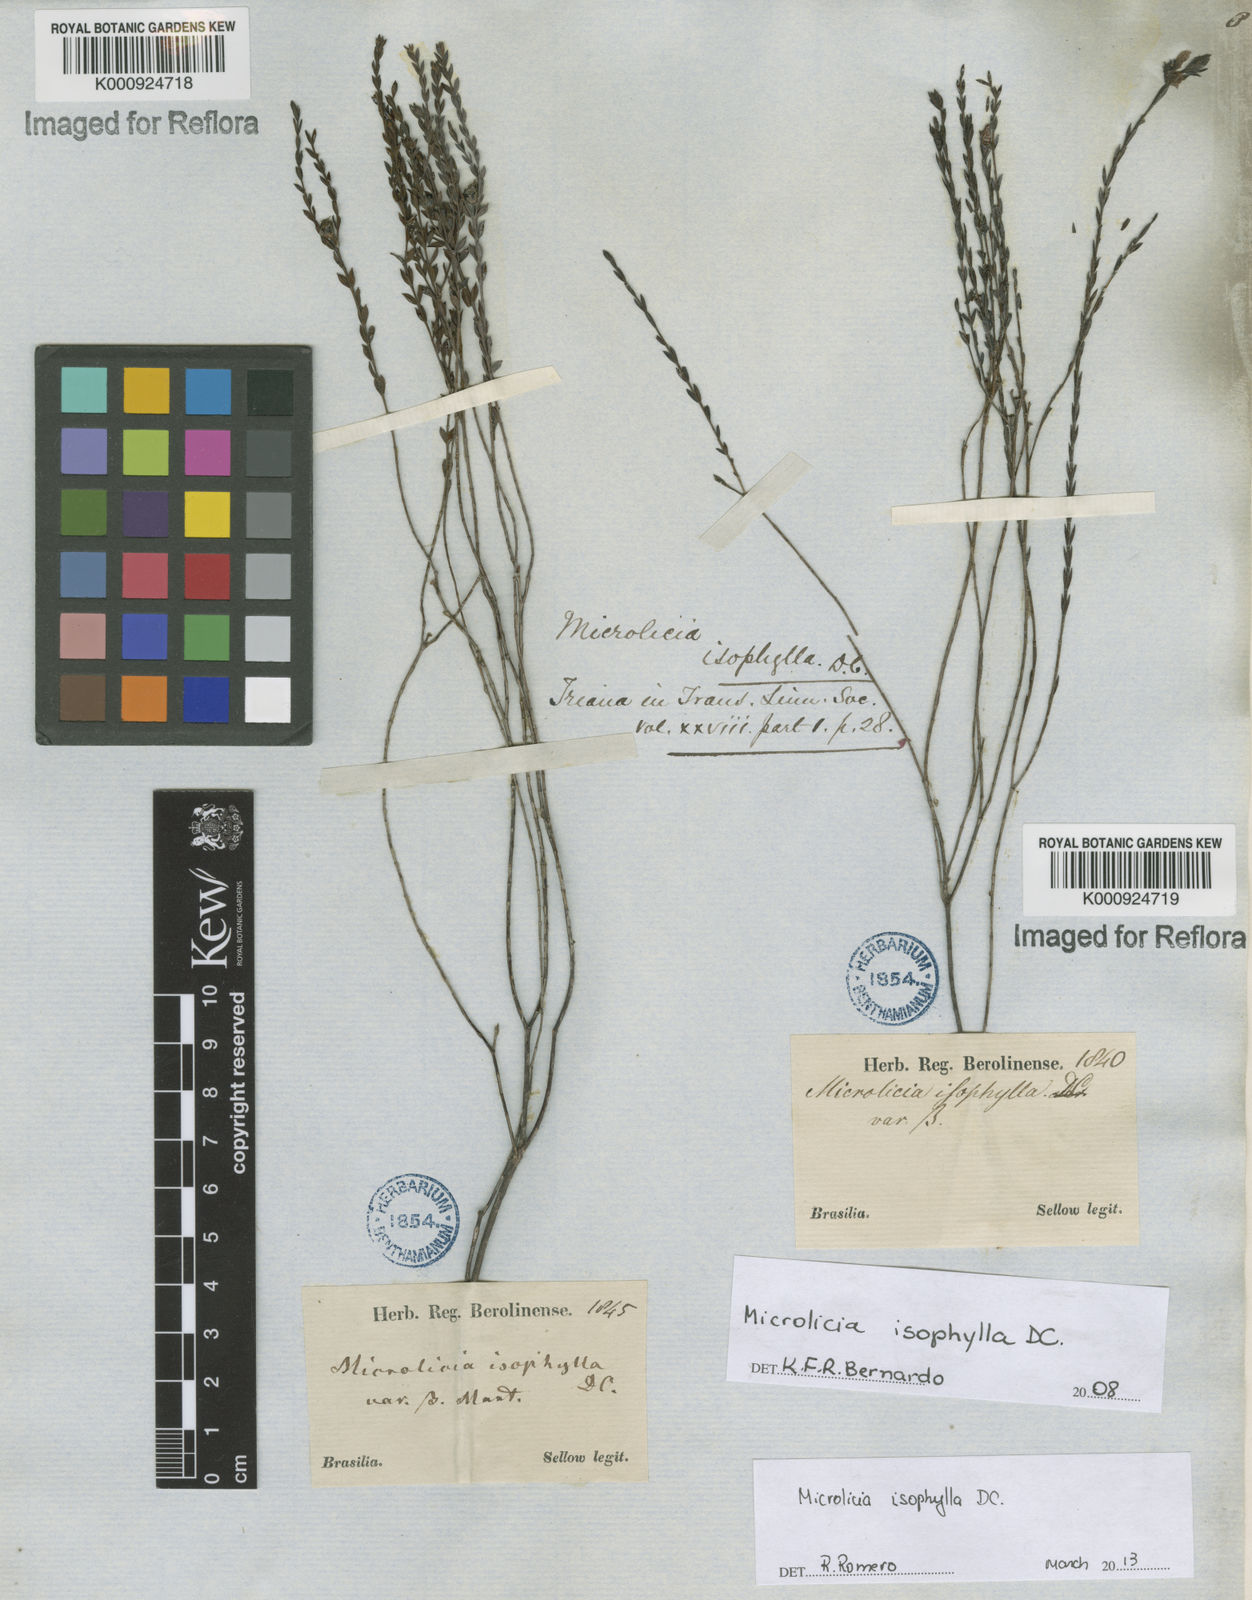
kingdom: Plantae
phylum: Tracheophyta
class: Magnoliopsida
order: Myrtales
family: Melastomataceae
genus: Microlicia
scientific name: Microlicia isophylla
